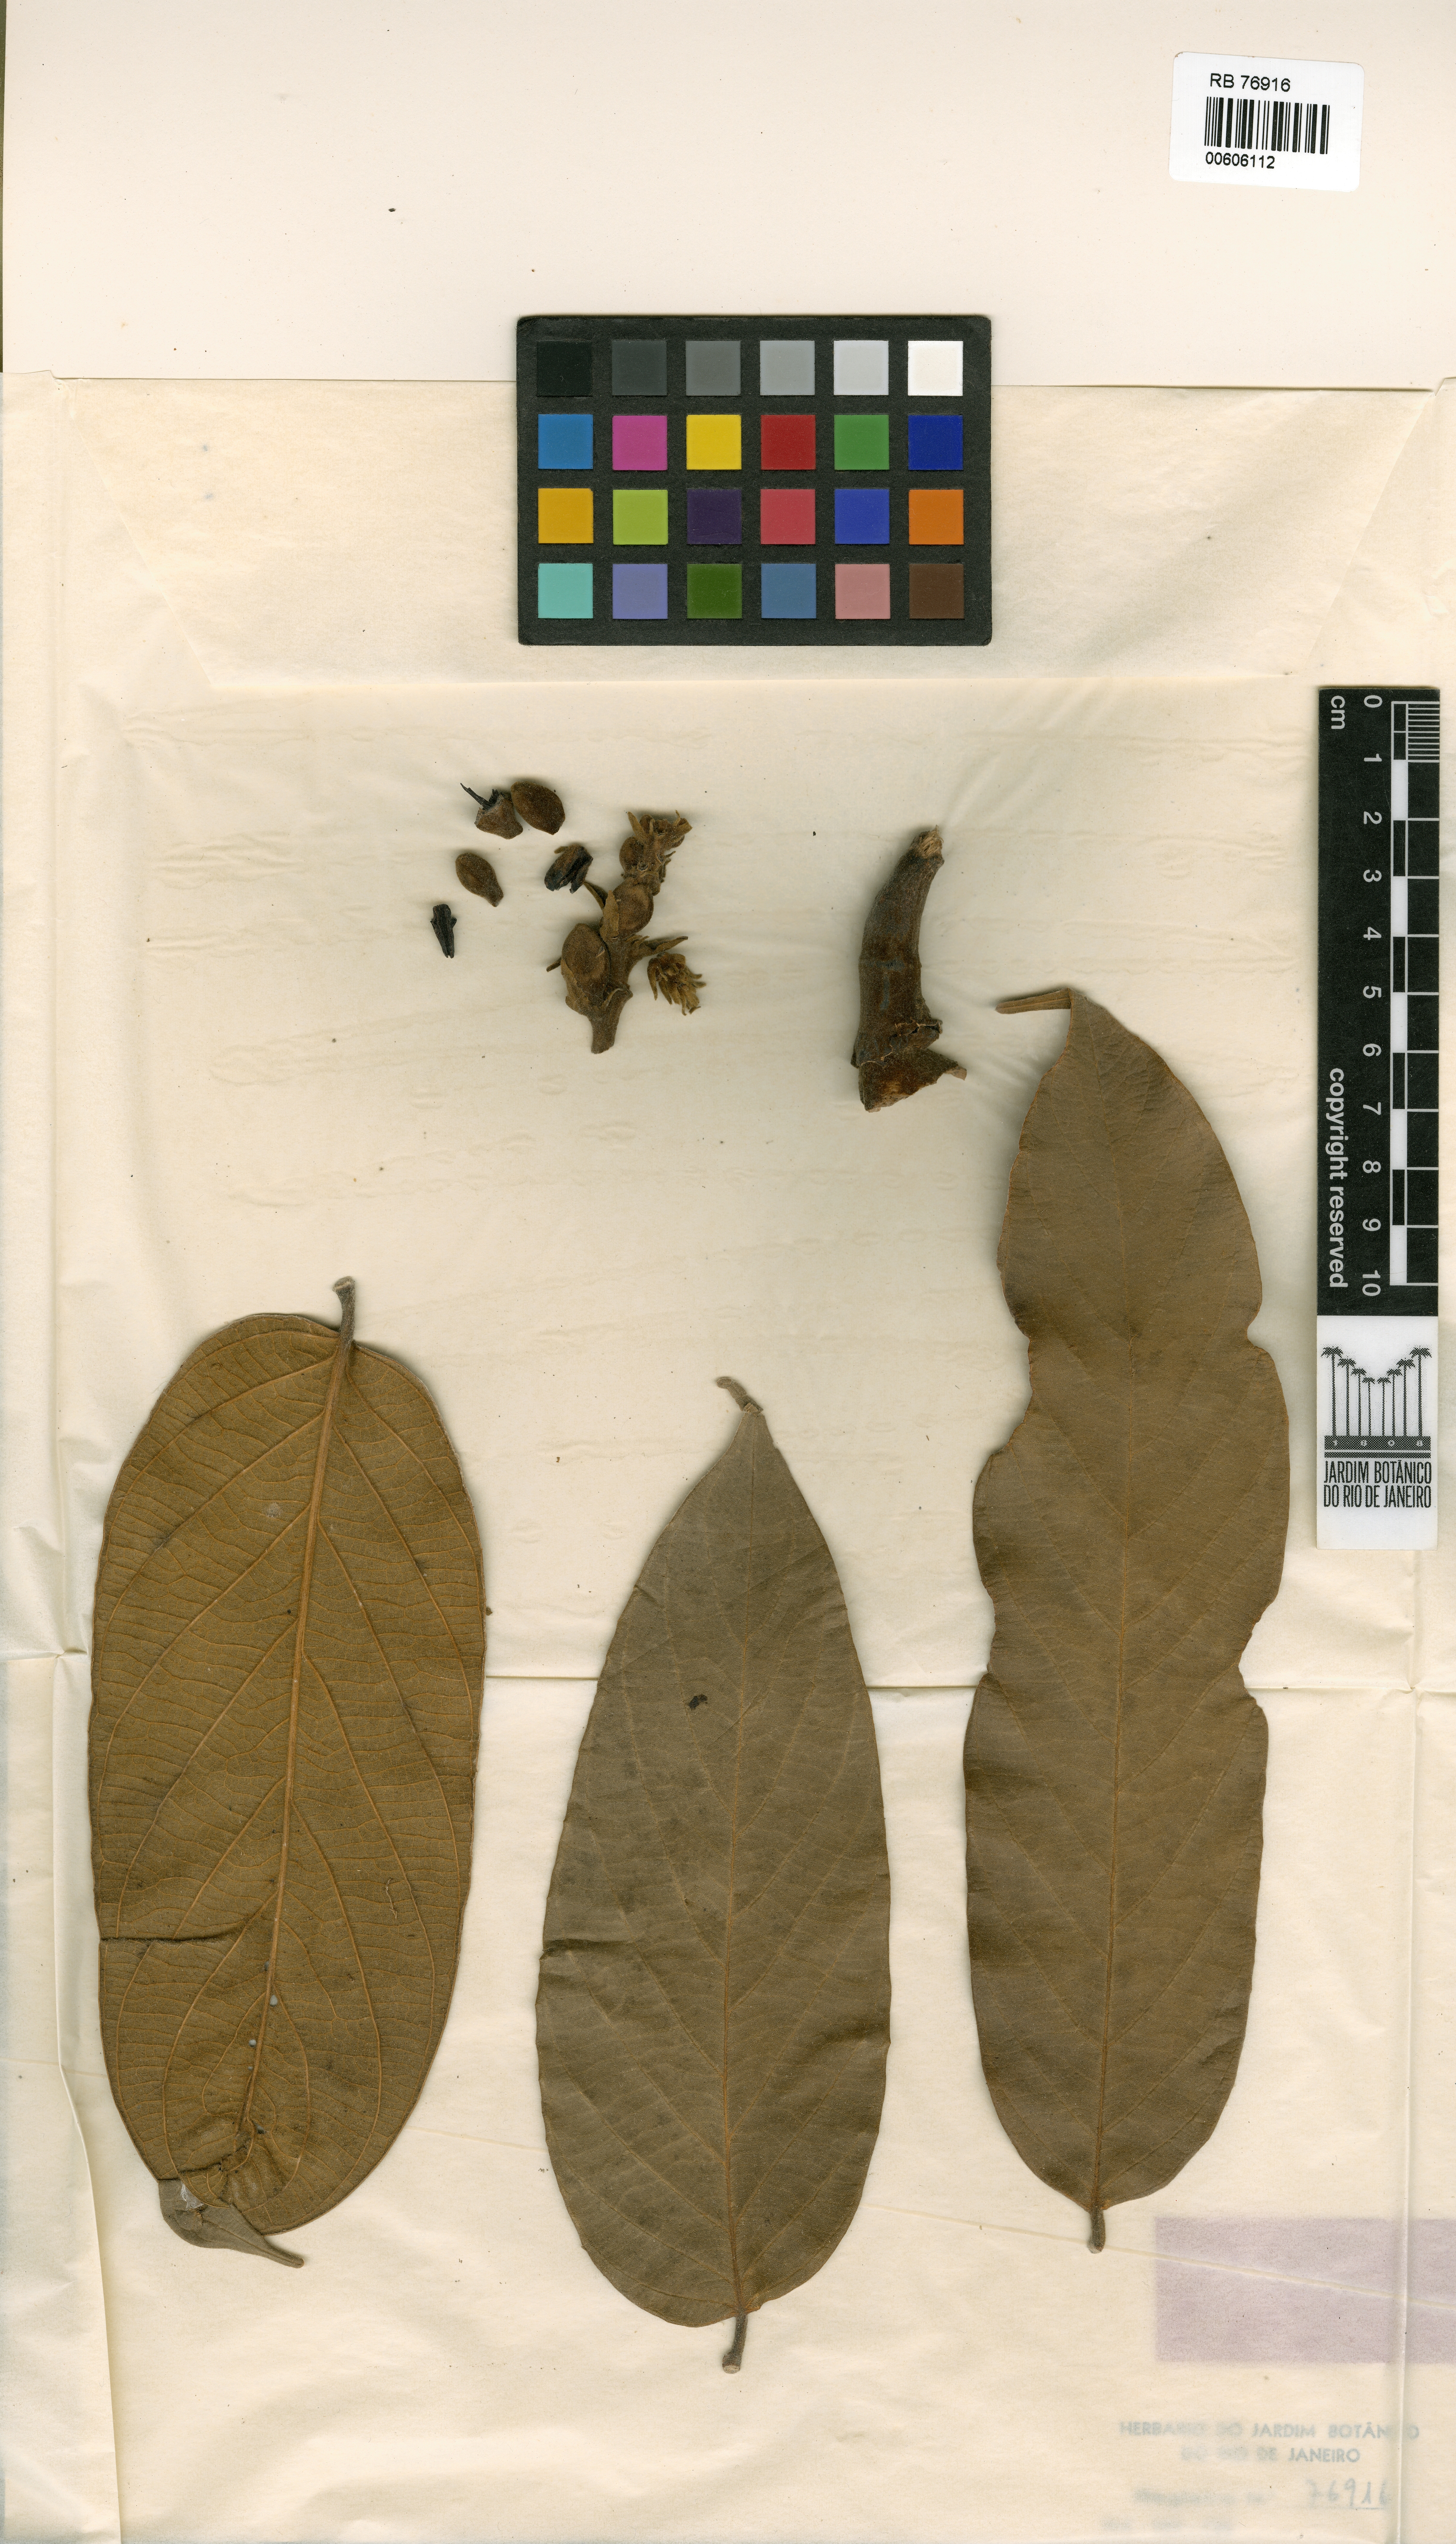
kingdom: Plantae
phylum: Tracheophyta
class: Magnoliopsida
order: Fabales
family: Fabaceae
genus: Alexa
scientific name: Alexa confusa
